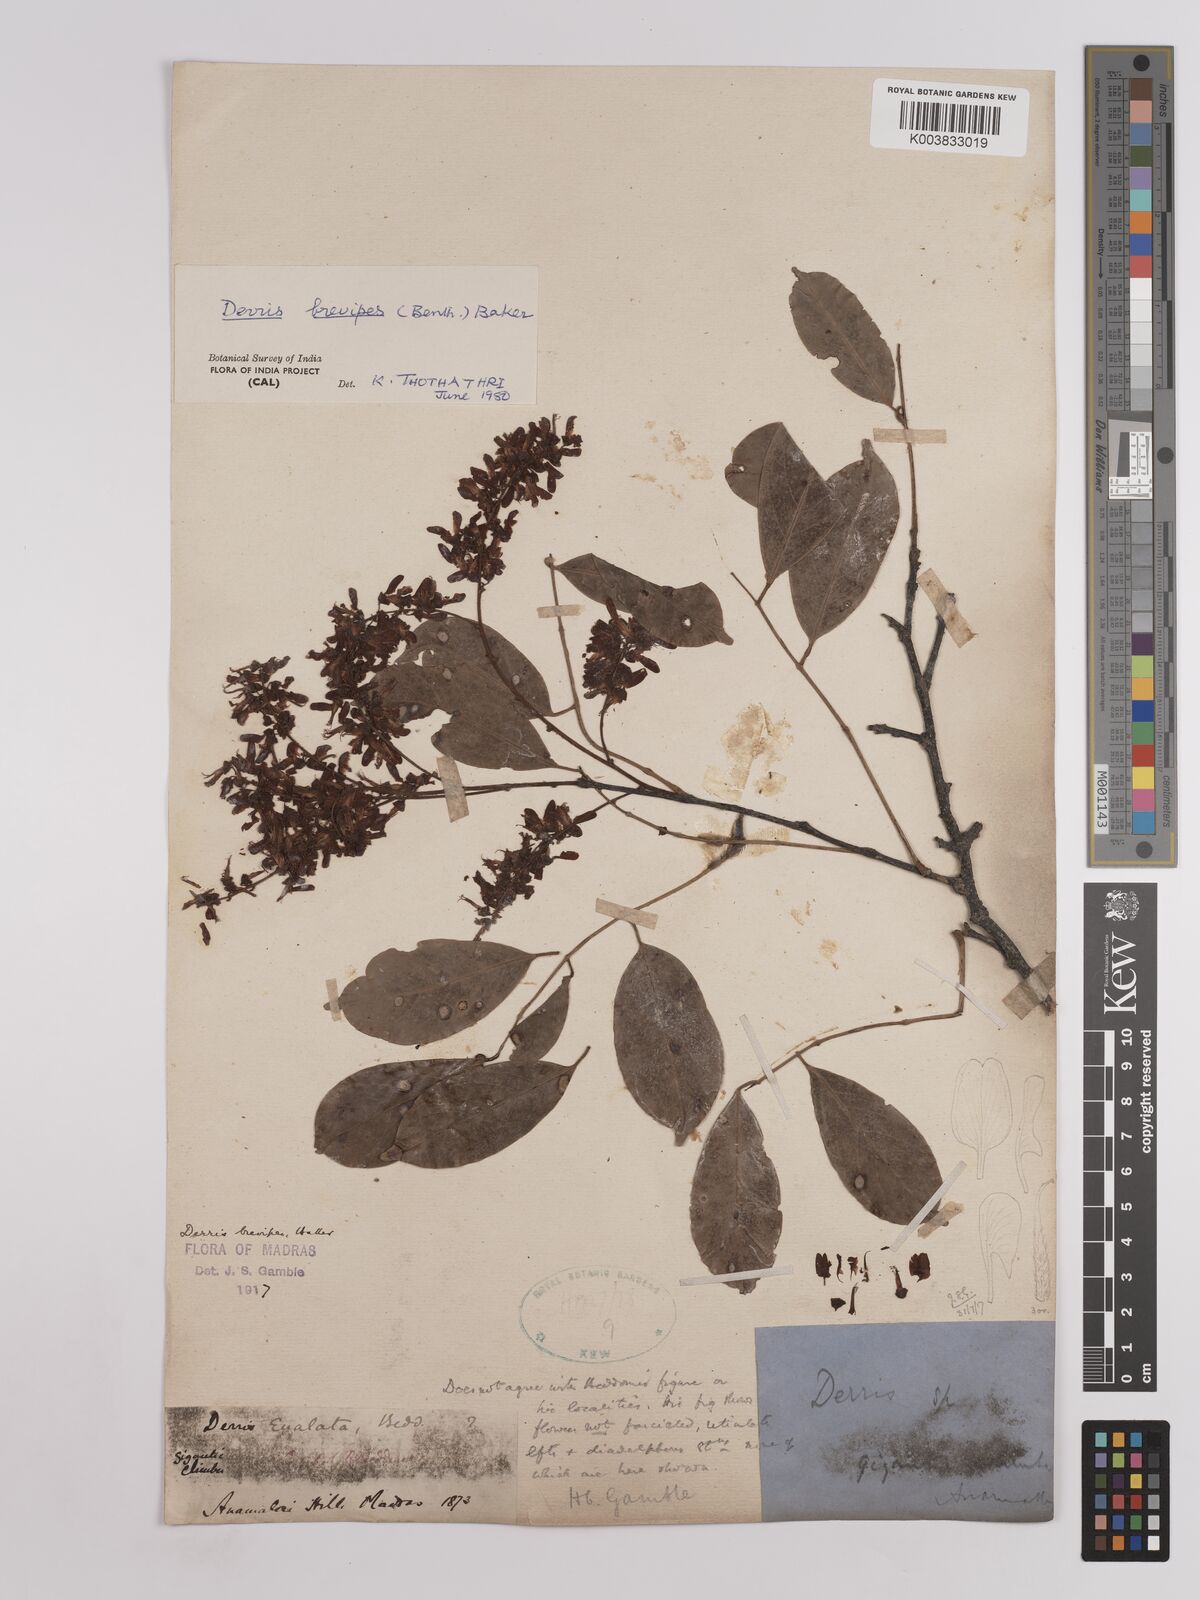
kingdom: Plantae
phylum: Tracheophyta
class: Magnoliopsida
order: Fabales
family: Fabaceae
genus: Derris
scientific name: Derris brevipes
